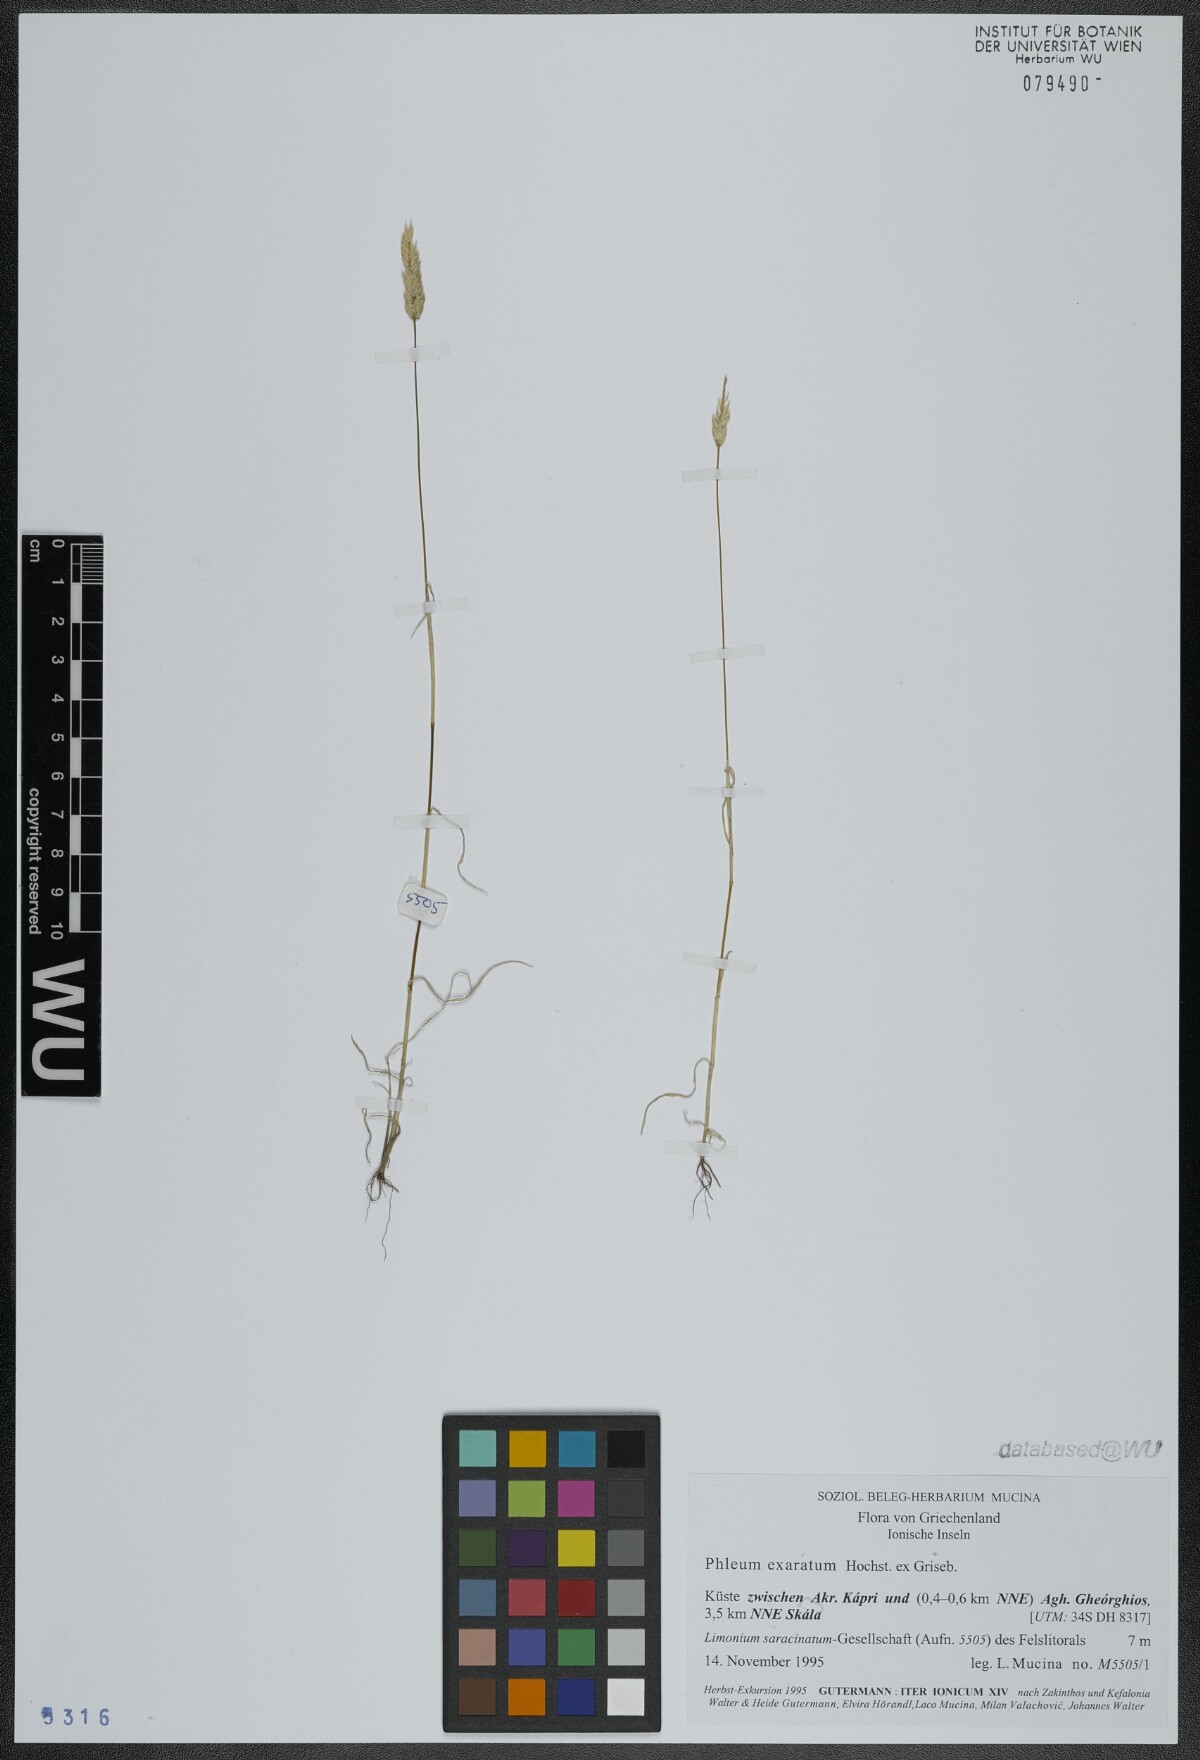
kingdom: Plantae
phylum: Tracheophyta
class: Liliopsida
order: Poales
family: Poaceae
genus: Phleum
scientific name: Phleum exaratum
